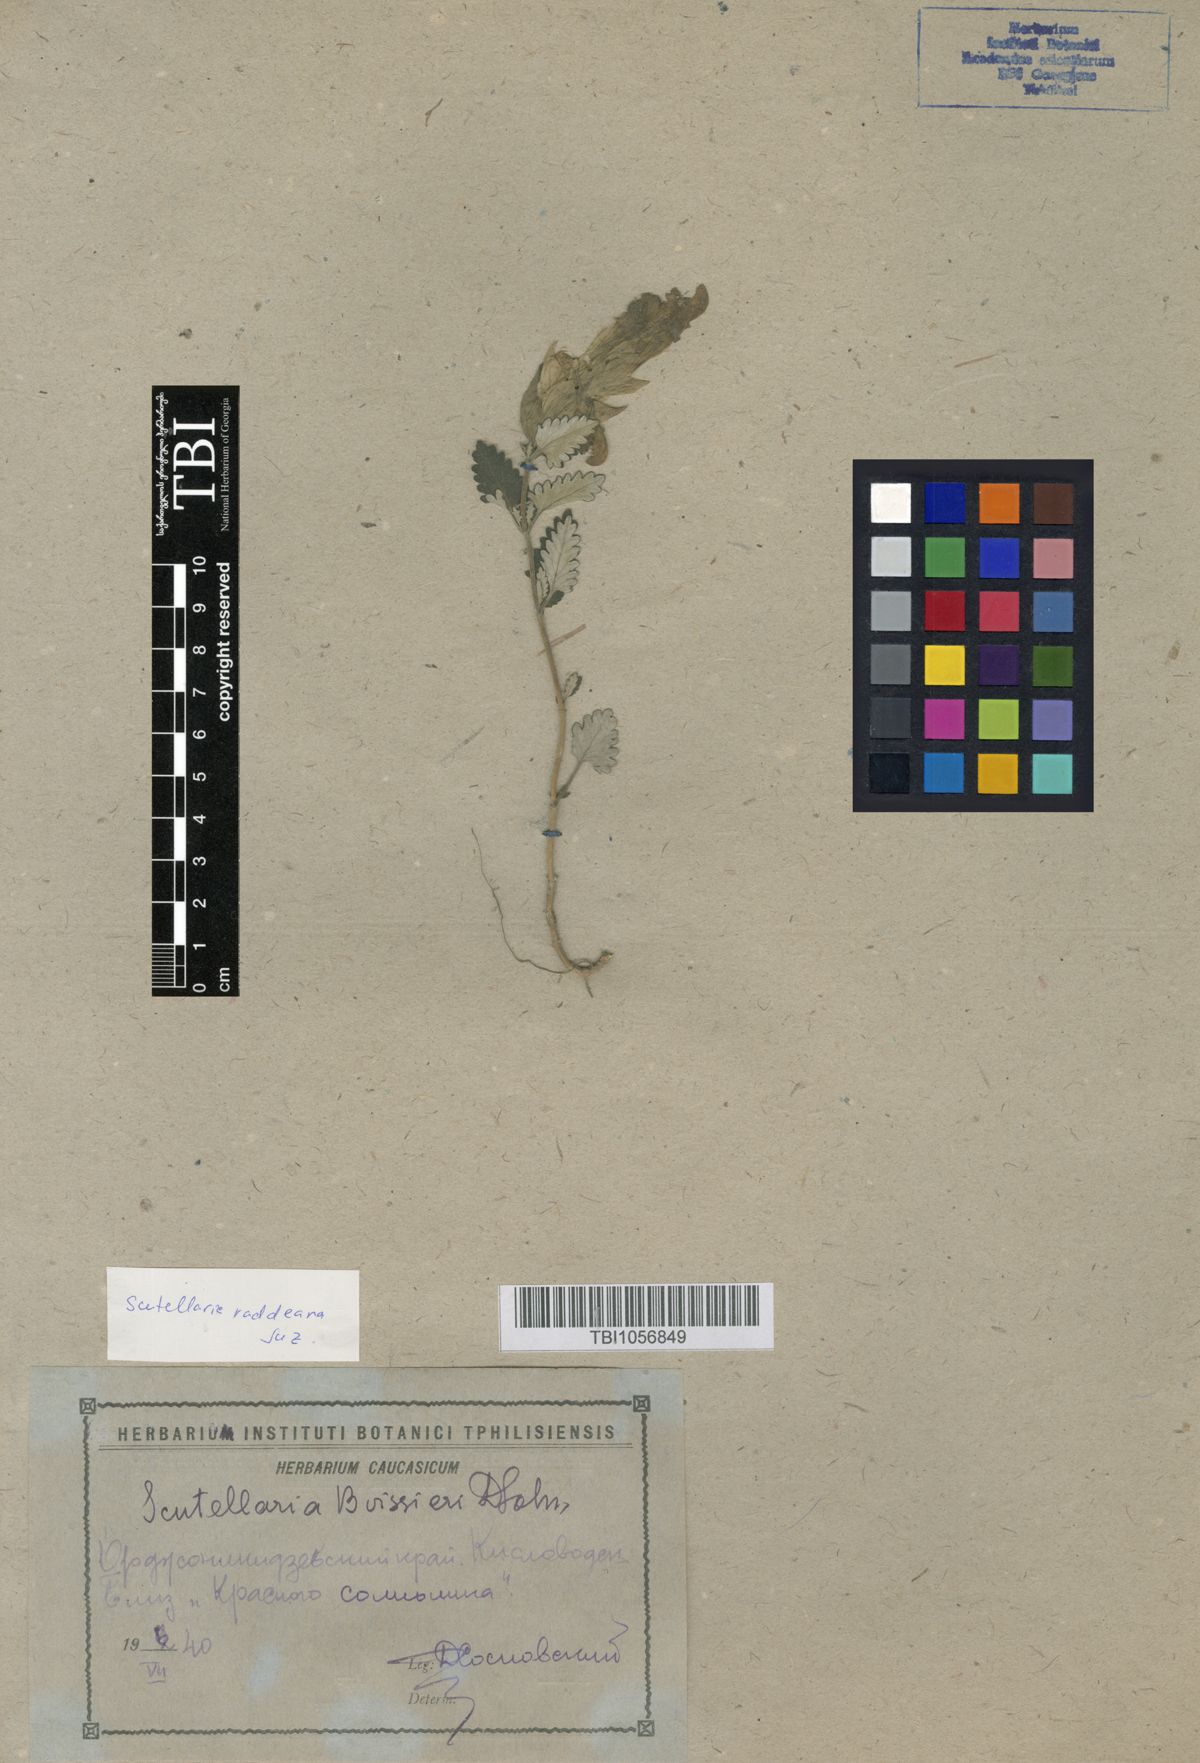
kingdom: Plantae
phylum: Tracheophyta
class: Magnoliopsida
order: Lamiales
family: Lamiaceae
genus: Scutellaria
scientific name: Scutellaria raddeana
